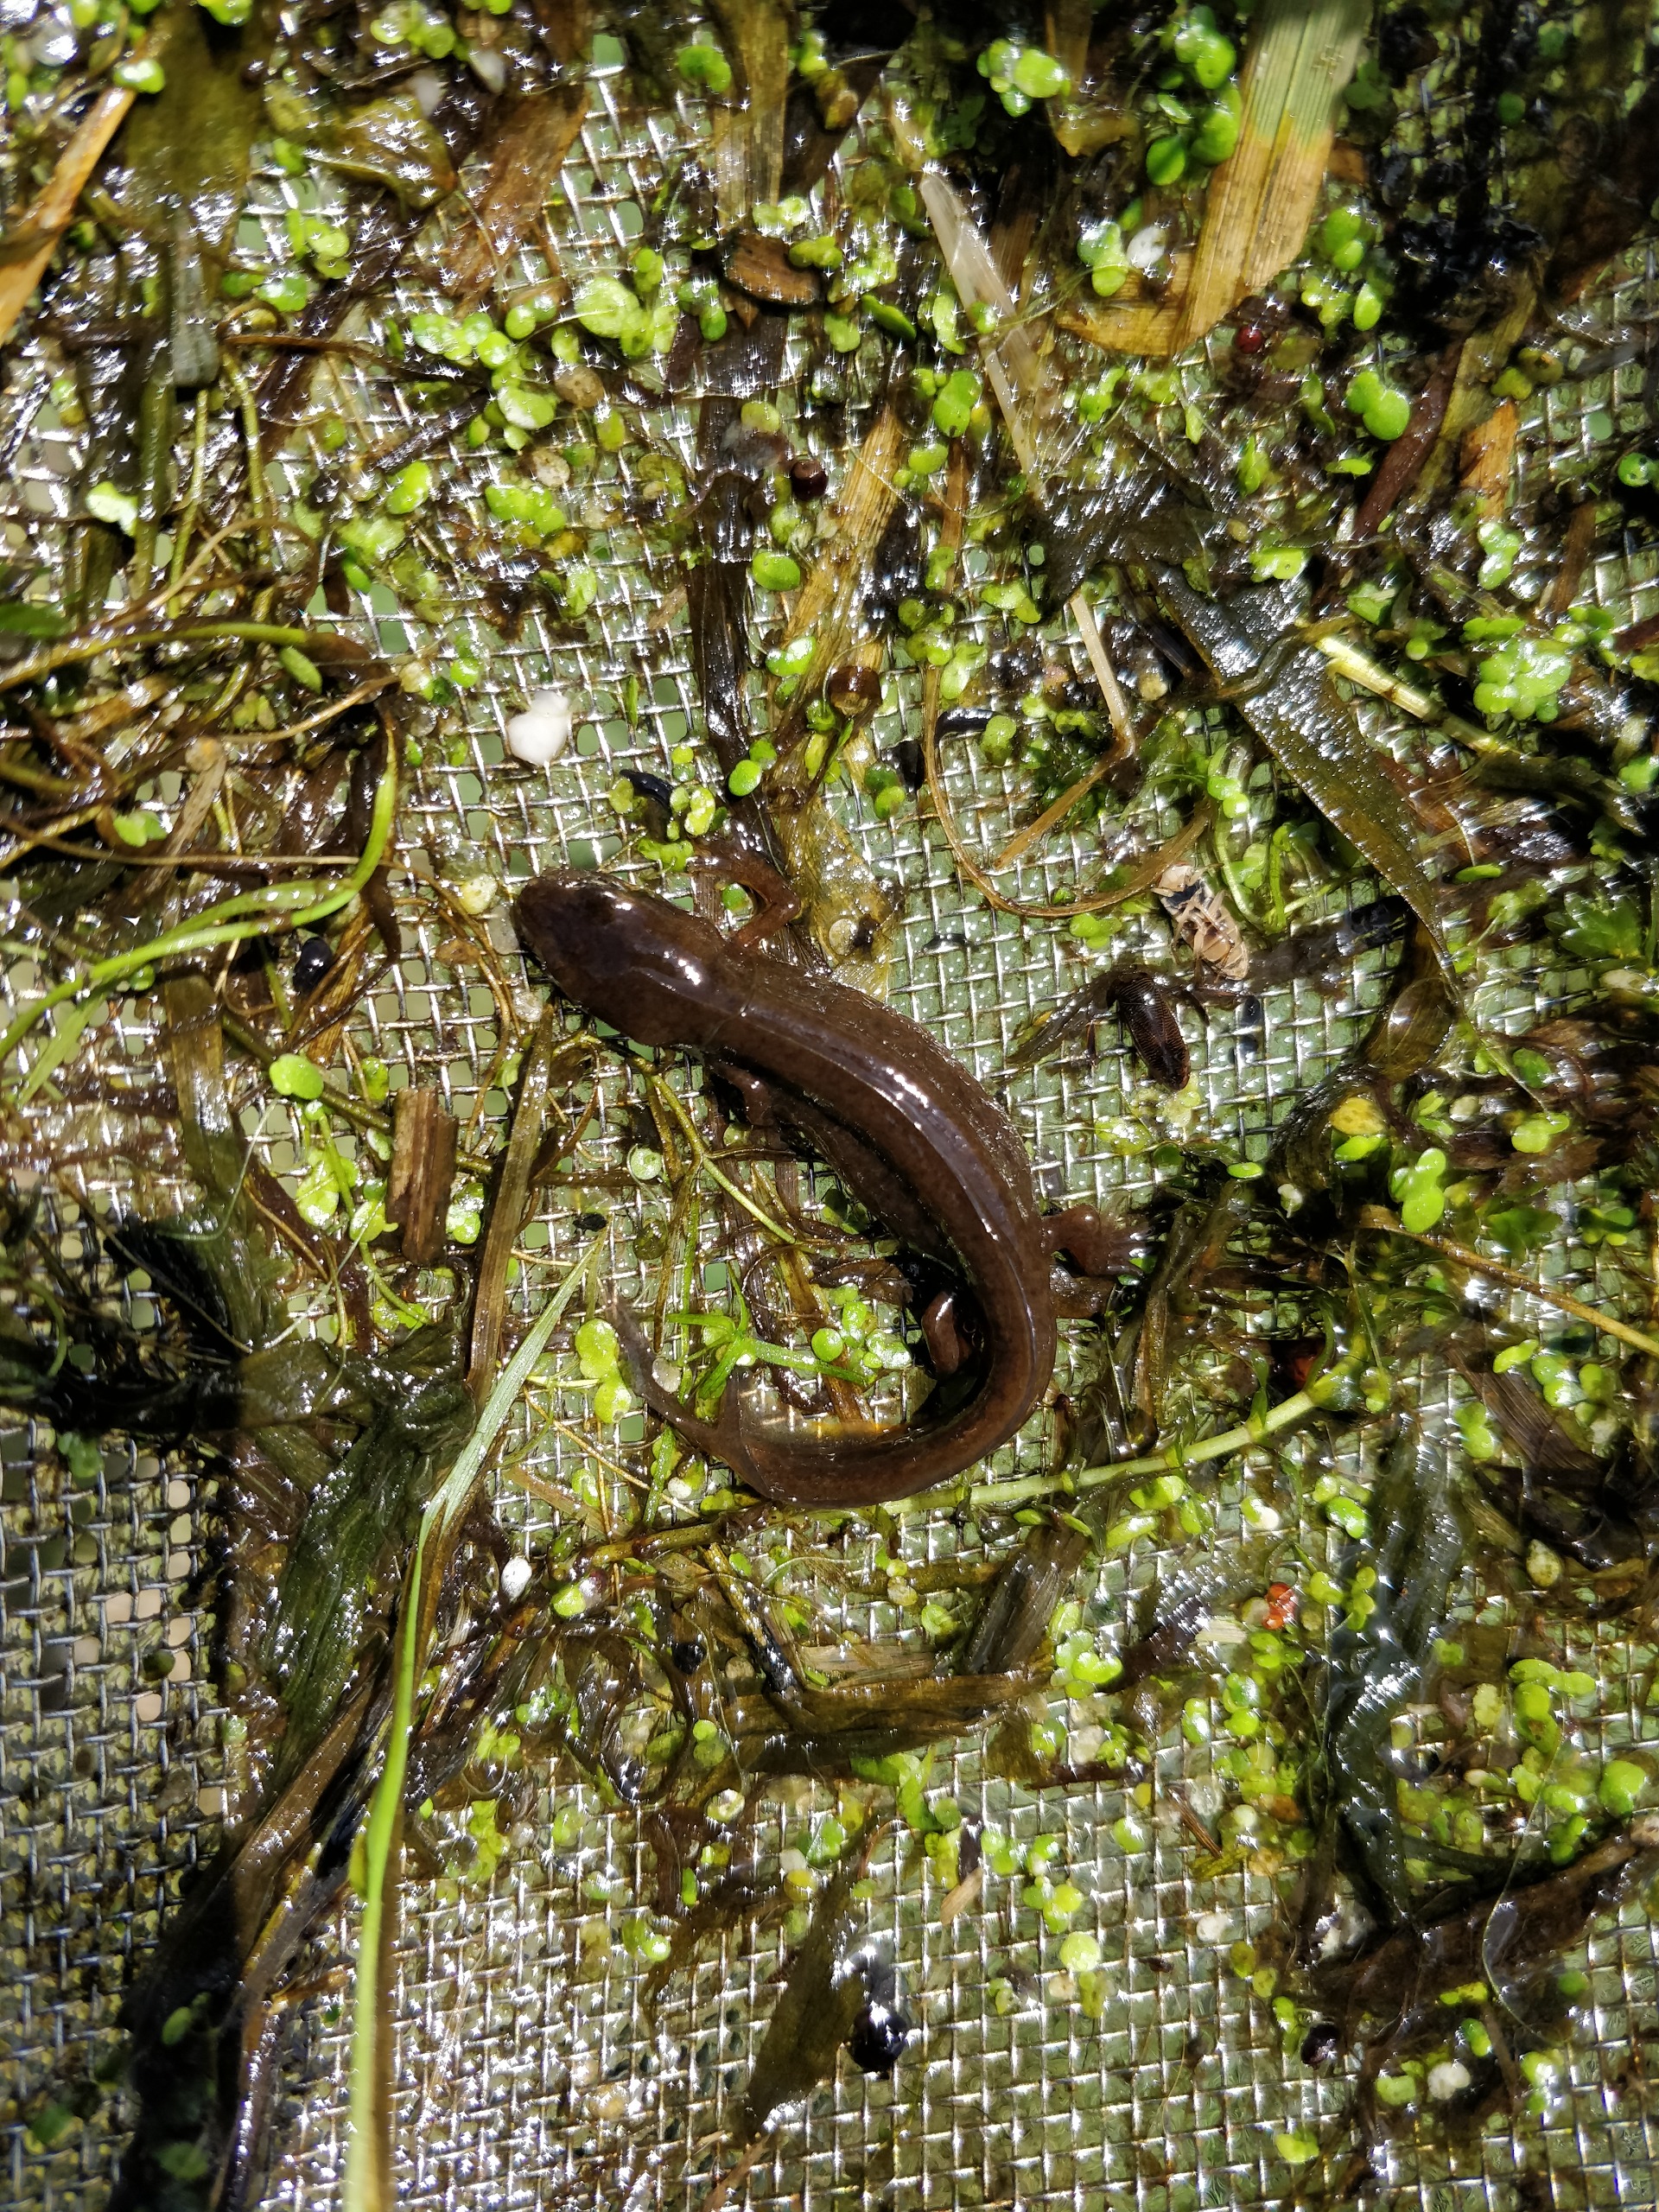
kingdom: Animalia
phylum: Chordata
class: Amphibia
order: Caudata
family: Salamandridae
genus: Lissotriton
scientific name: Lissotriton vulgaris
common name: Lille vandsalamander
